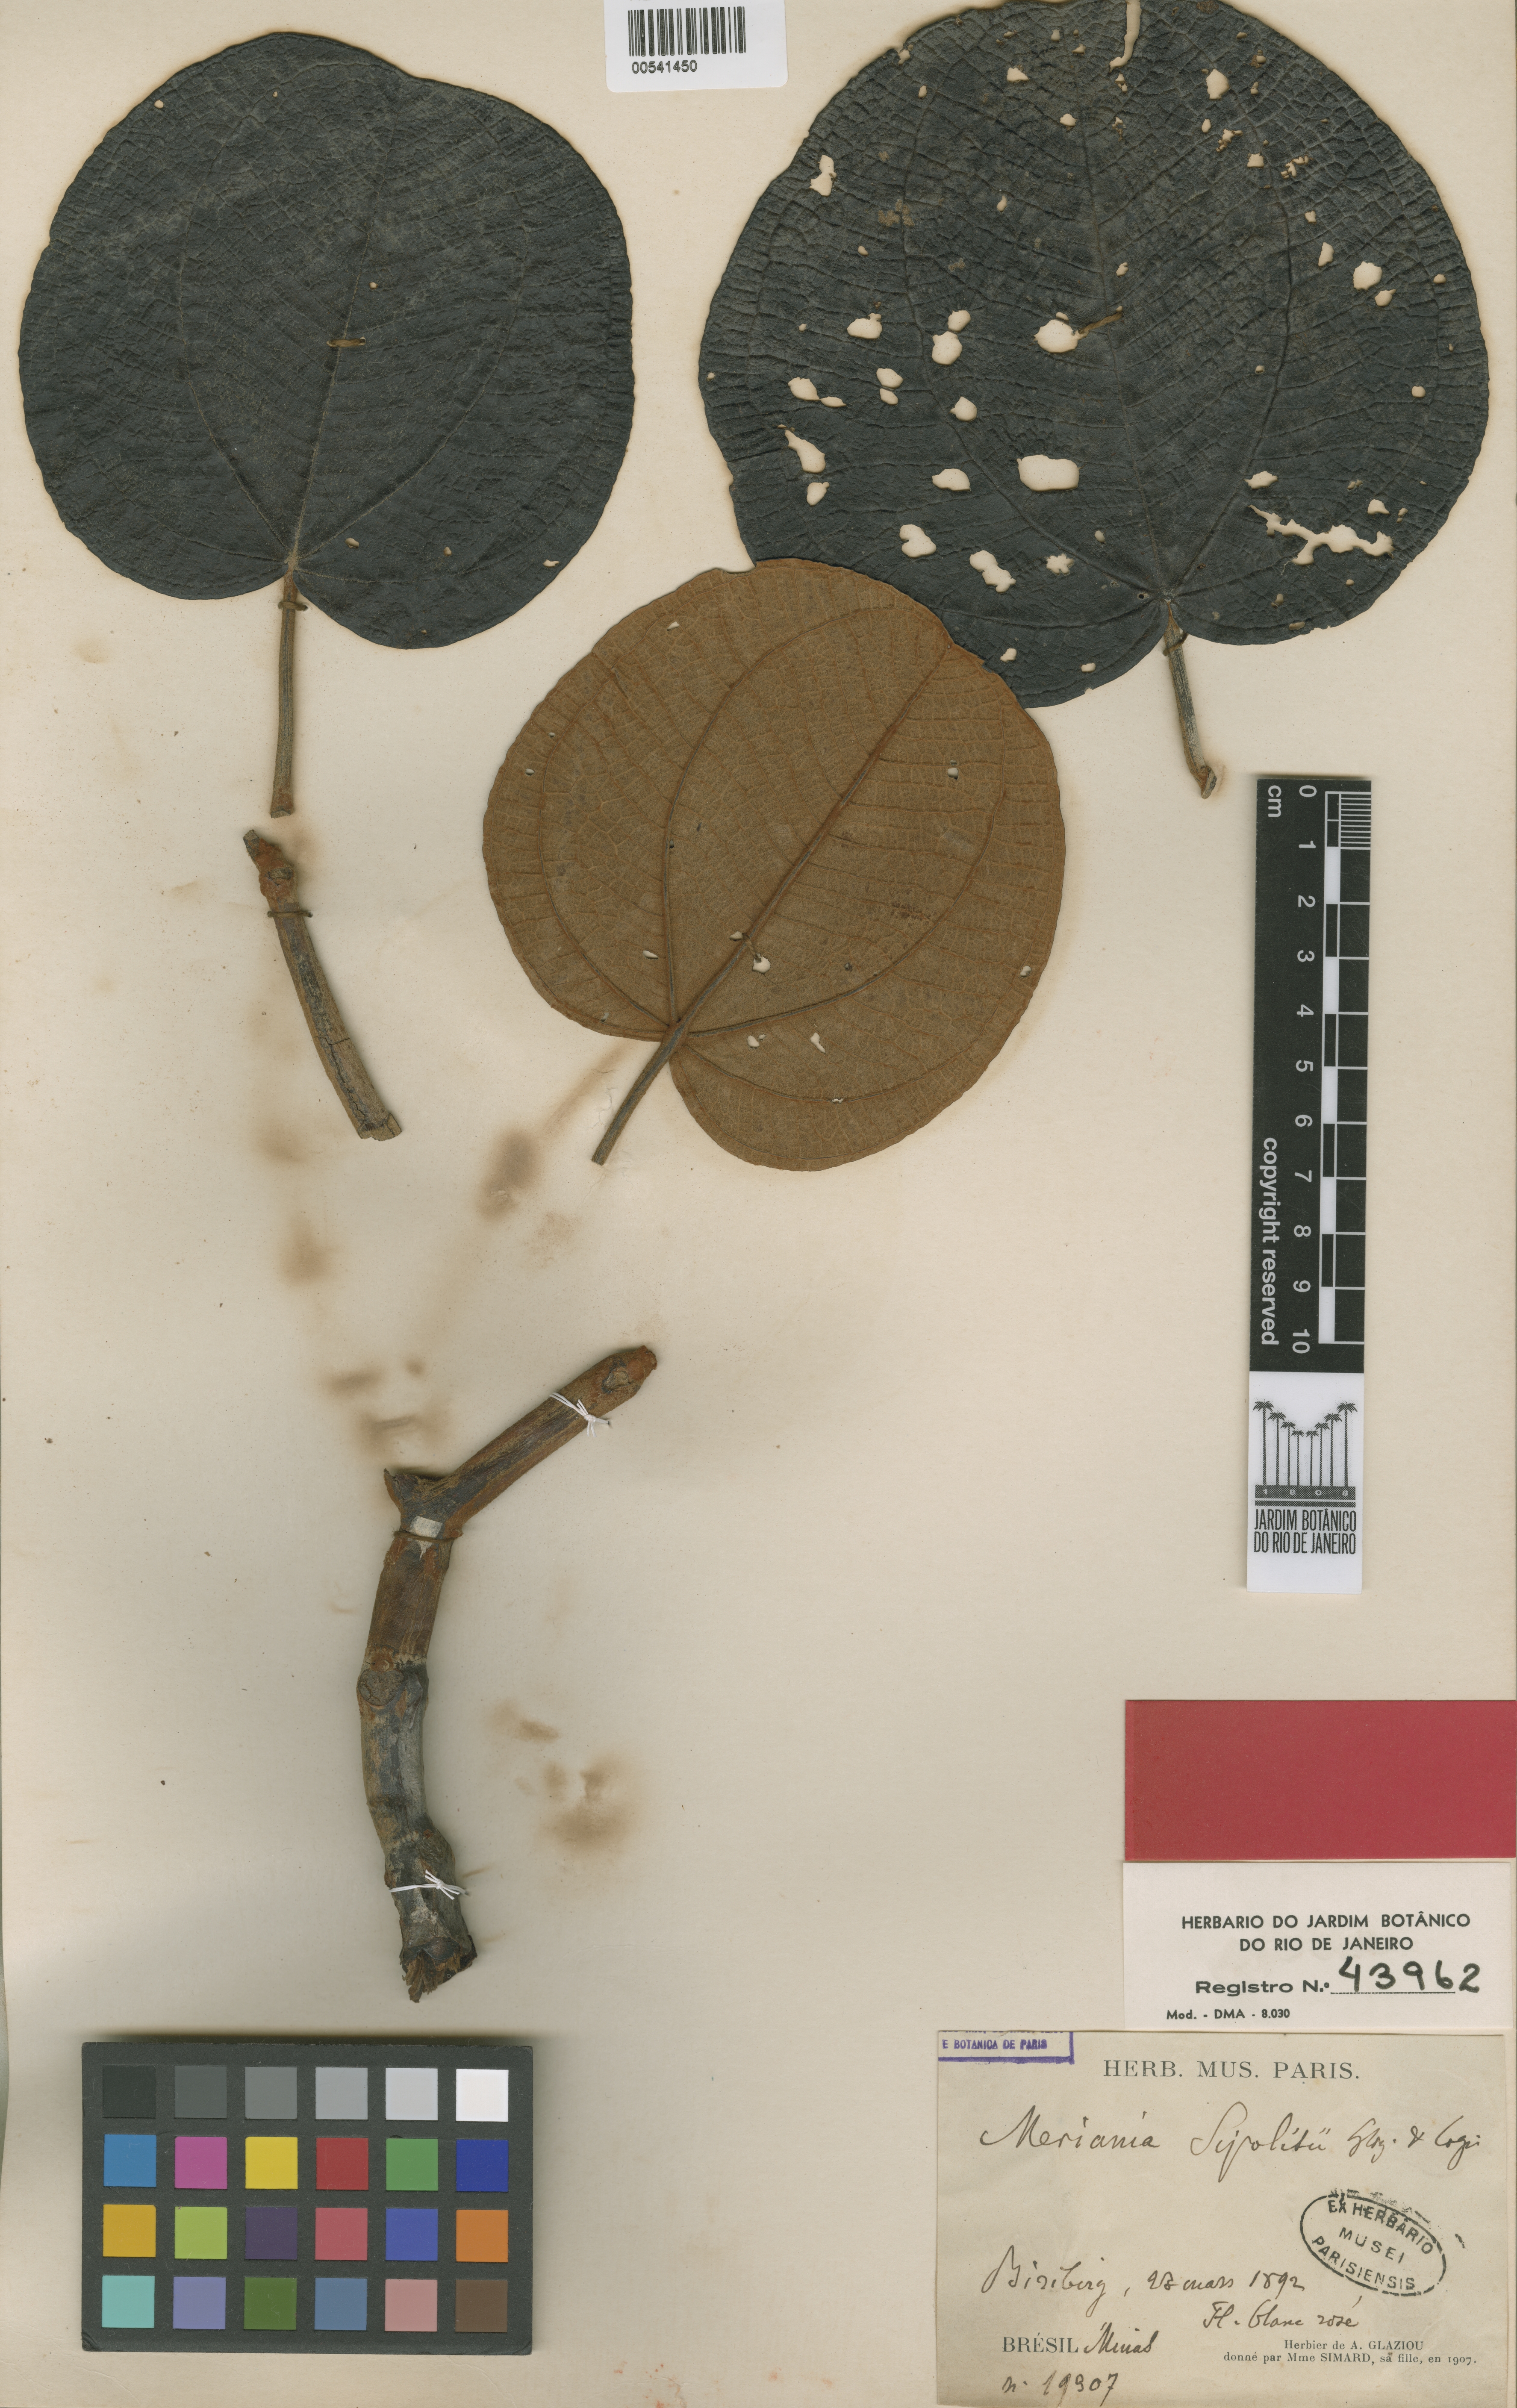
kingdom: Plantae
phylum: Tracheophyta
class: Magnoliopsida
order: Myrtales
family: Melastomataceae
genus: Merianthera
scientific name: Merianthera sipolisii
